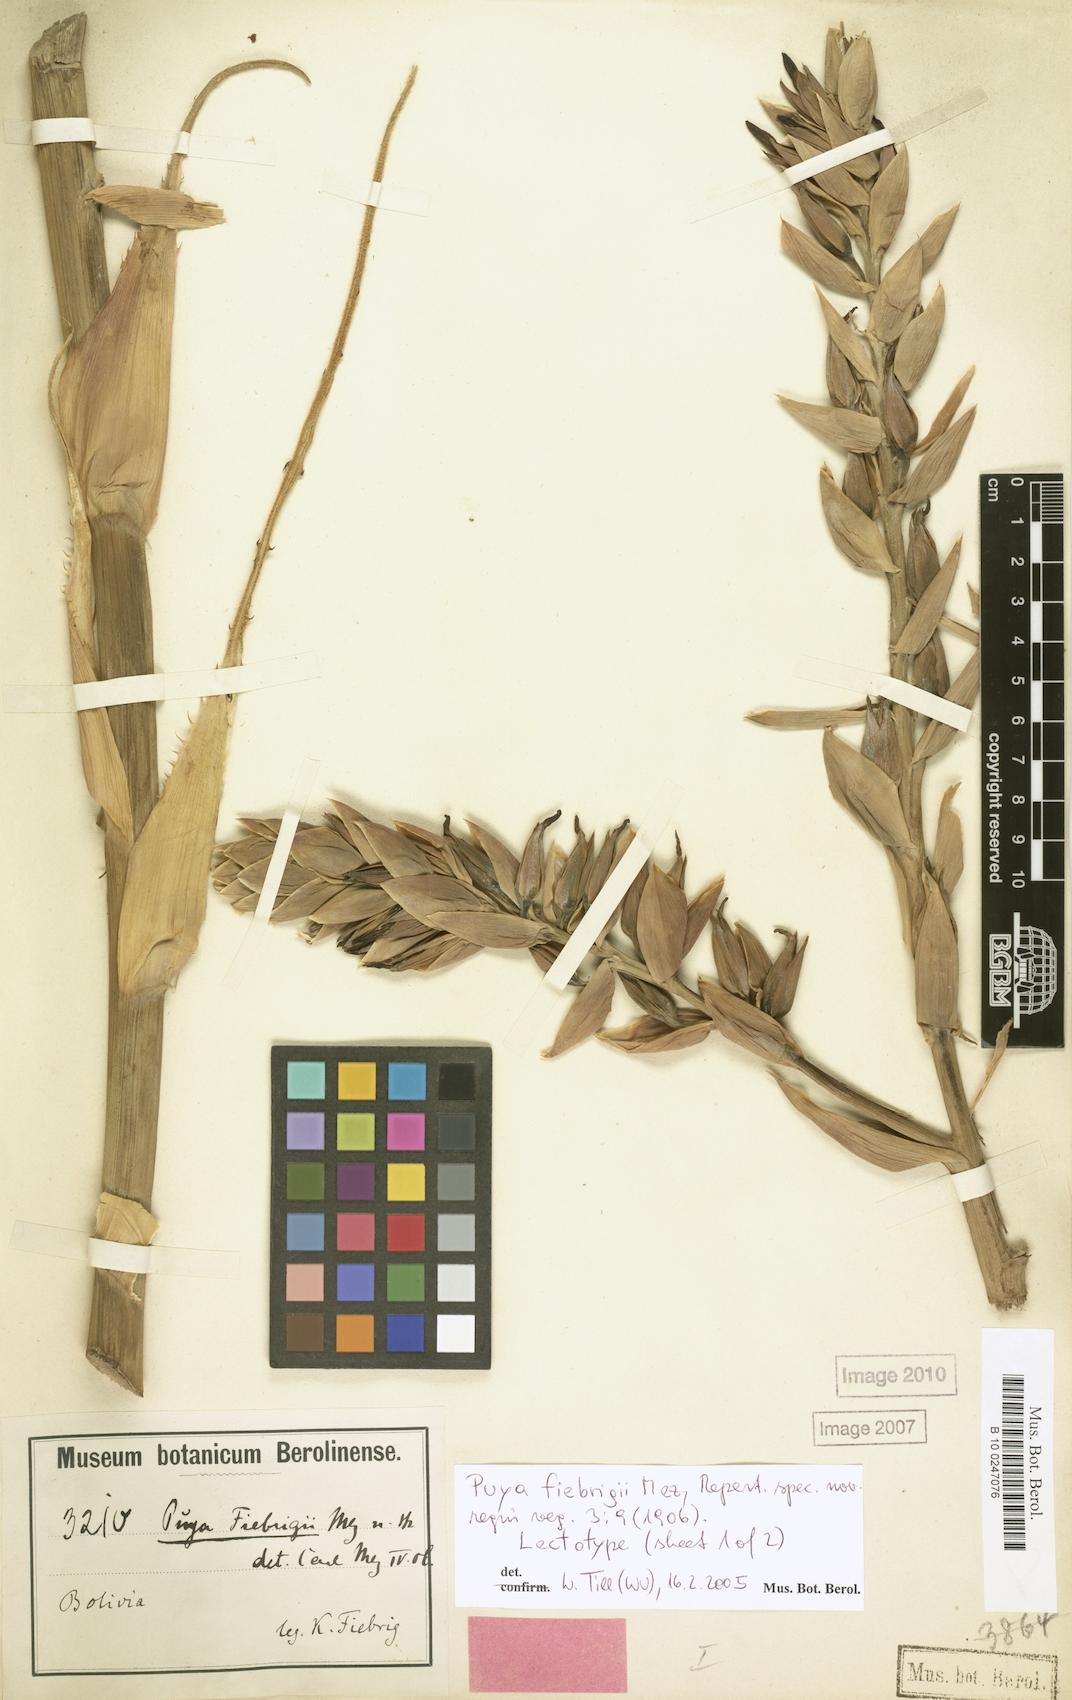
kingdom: Plantae
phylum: Tracheophyta
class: Liliopsida
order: Poales
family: Bromeliaceae
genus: Puya
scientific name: Puya fiebrigii
